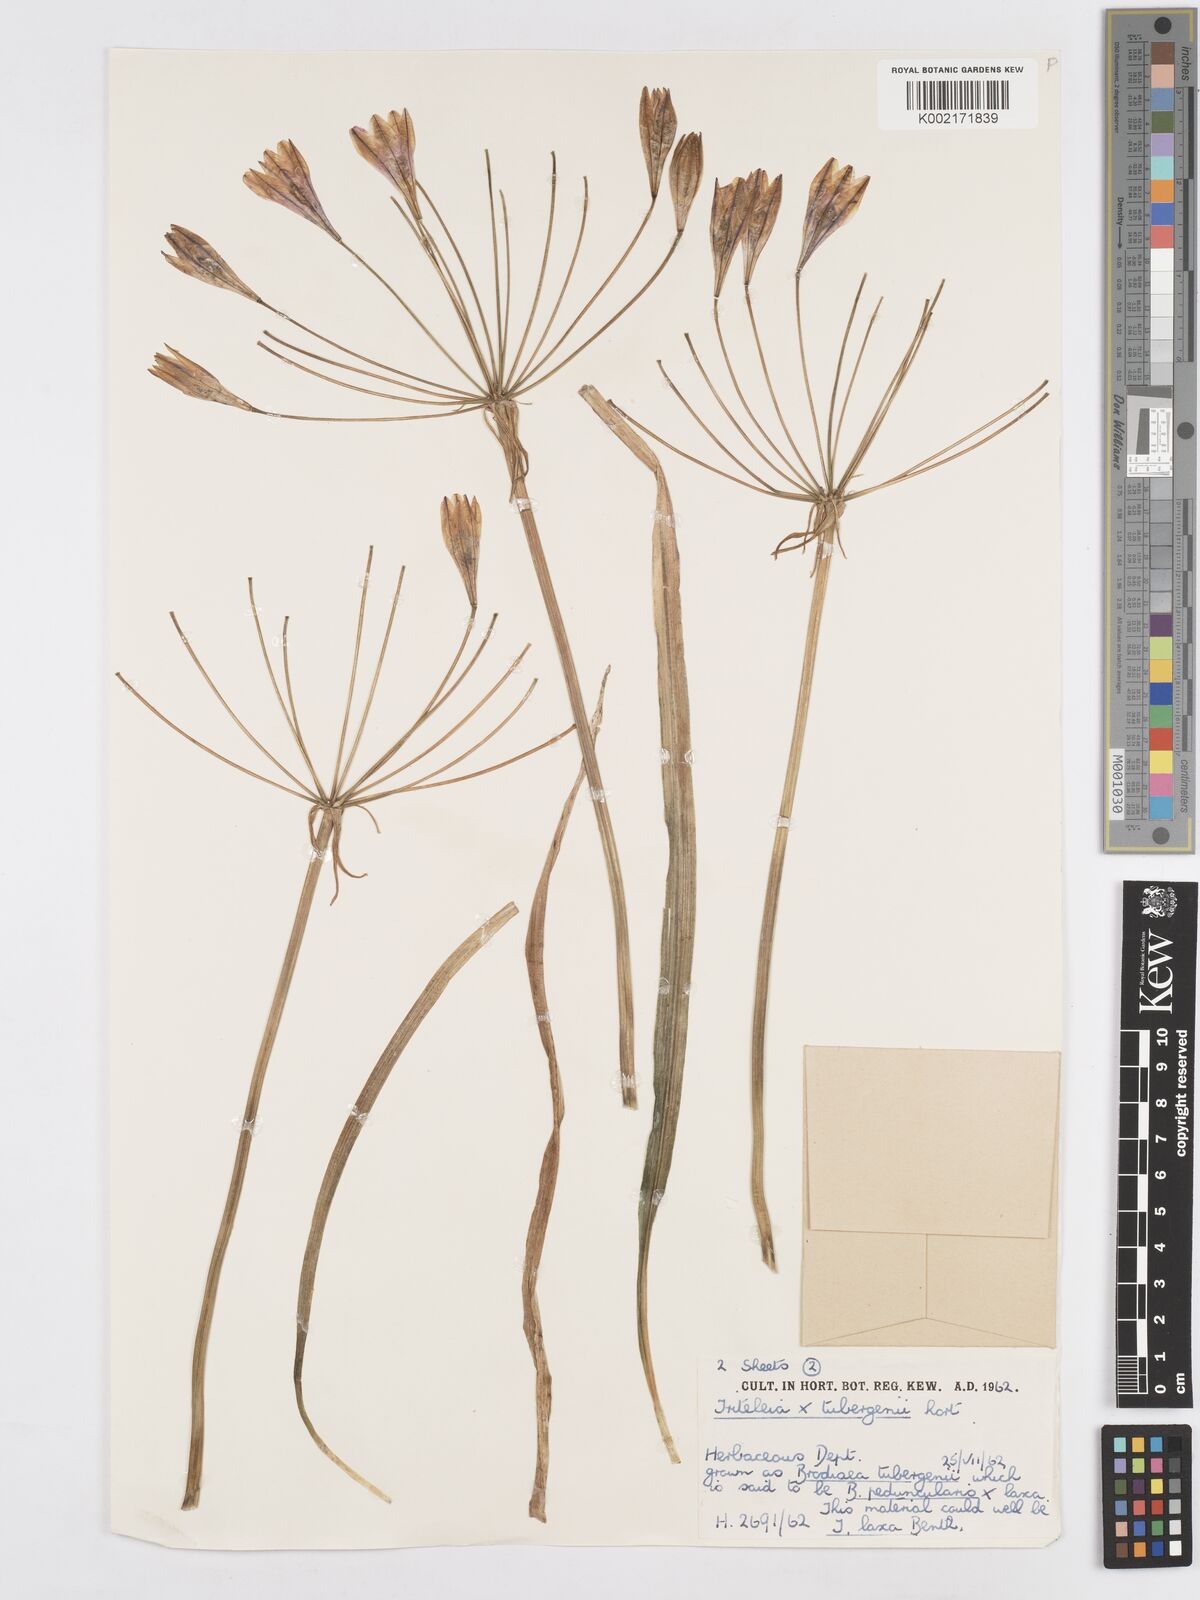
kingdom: Plantae
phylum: Tracheophyta
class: Liliopsida
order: Asparagales
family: Asparagaceae
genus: Triteleia
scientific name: Triteleia tubergenii
